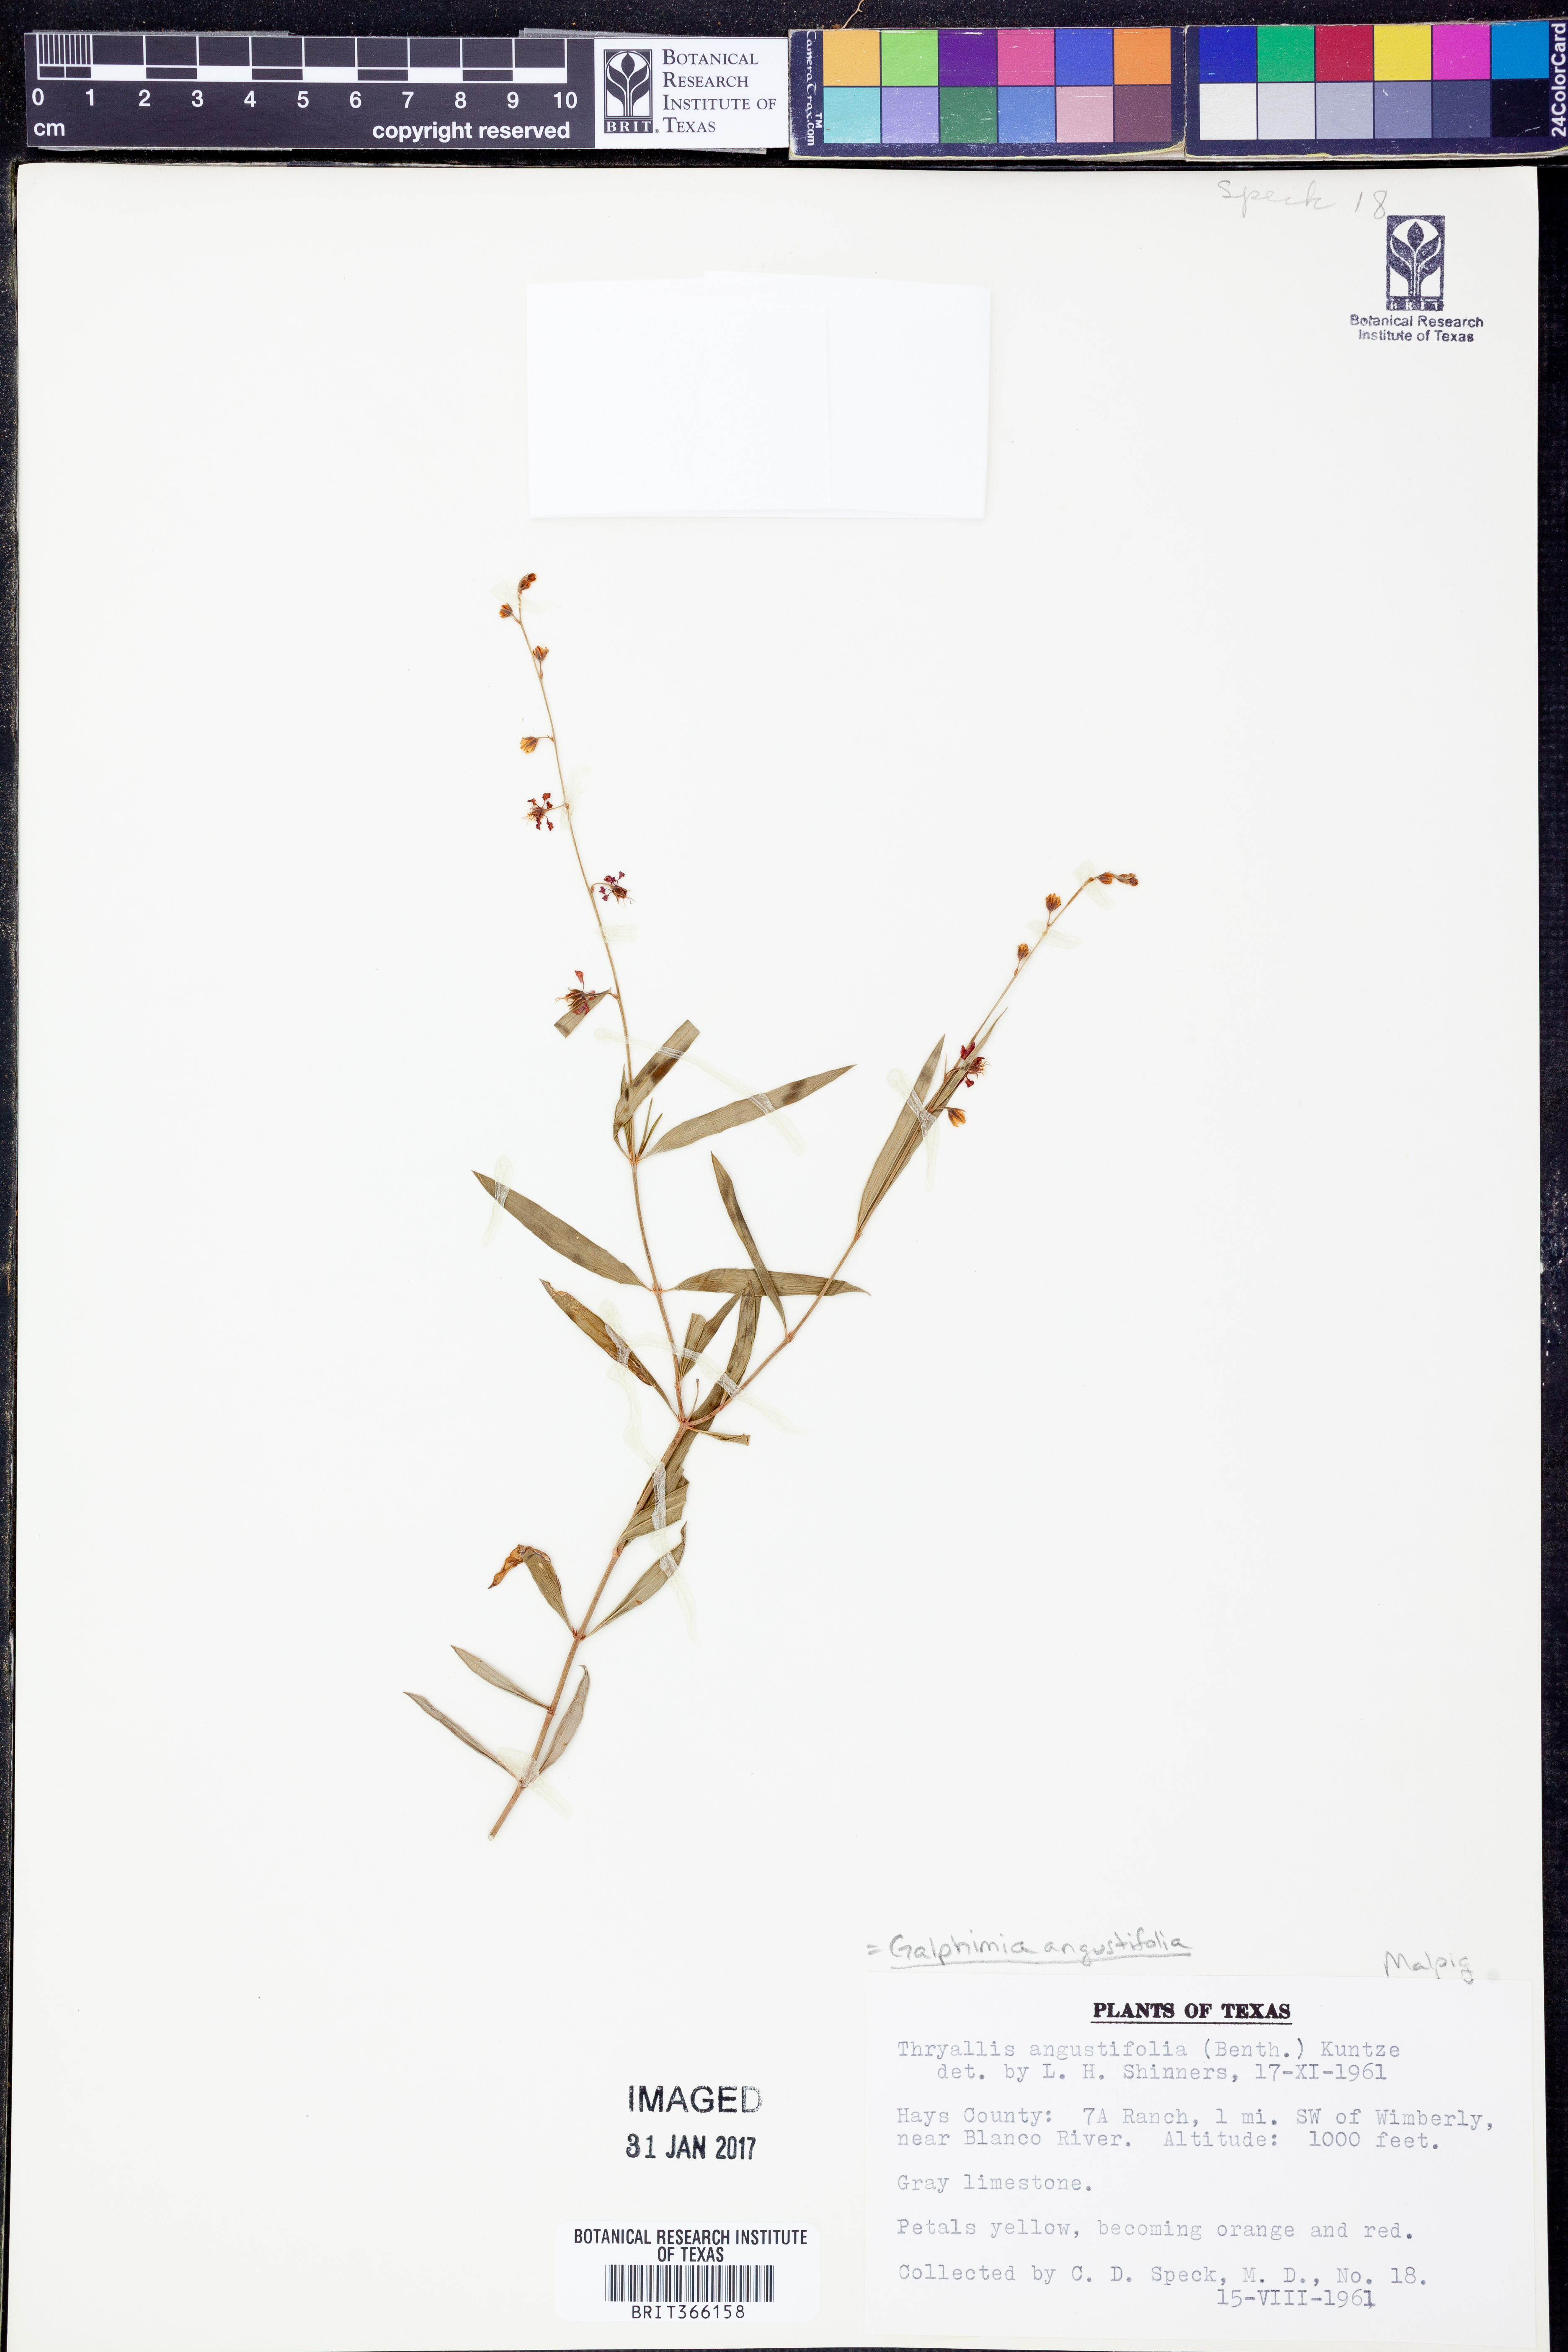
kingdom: Plantae
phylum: Tracheophyta
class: Magnoliopsida
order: Malpighiales
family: Malpighiaceae
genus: Galphimia
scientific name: Galphimia angustifolia
